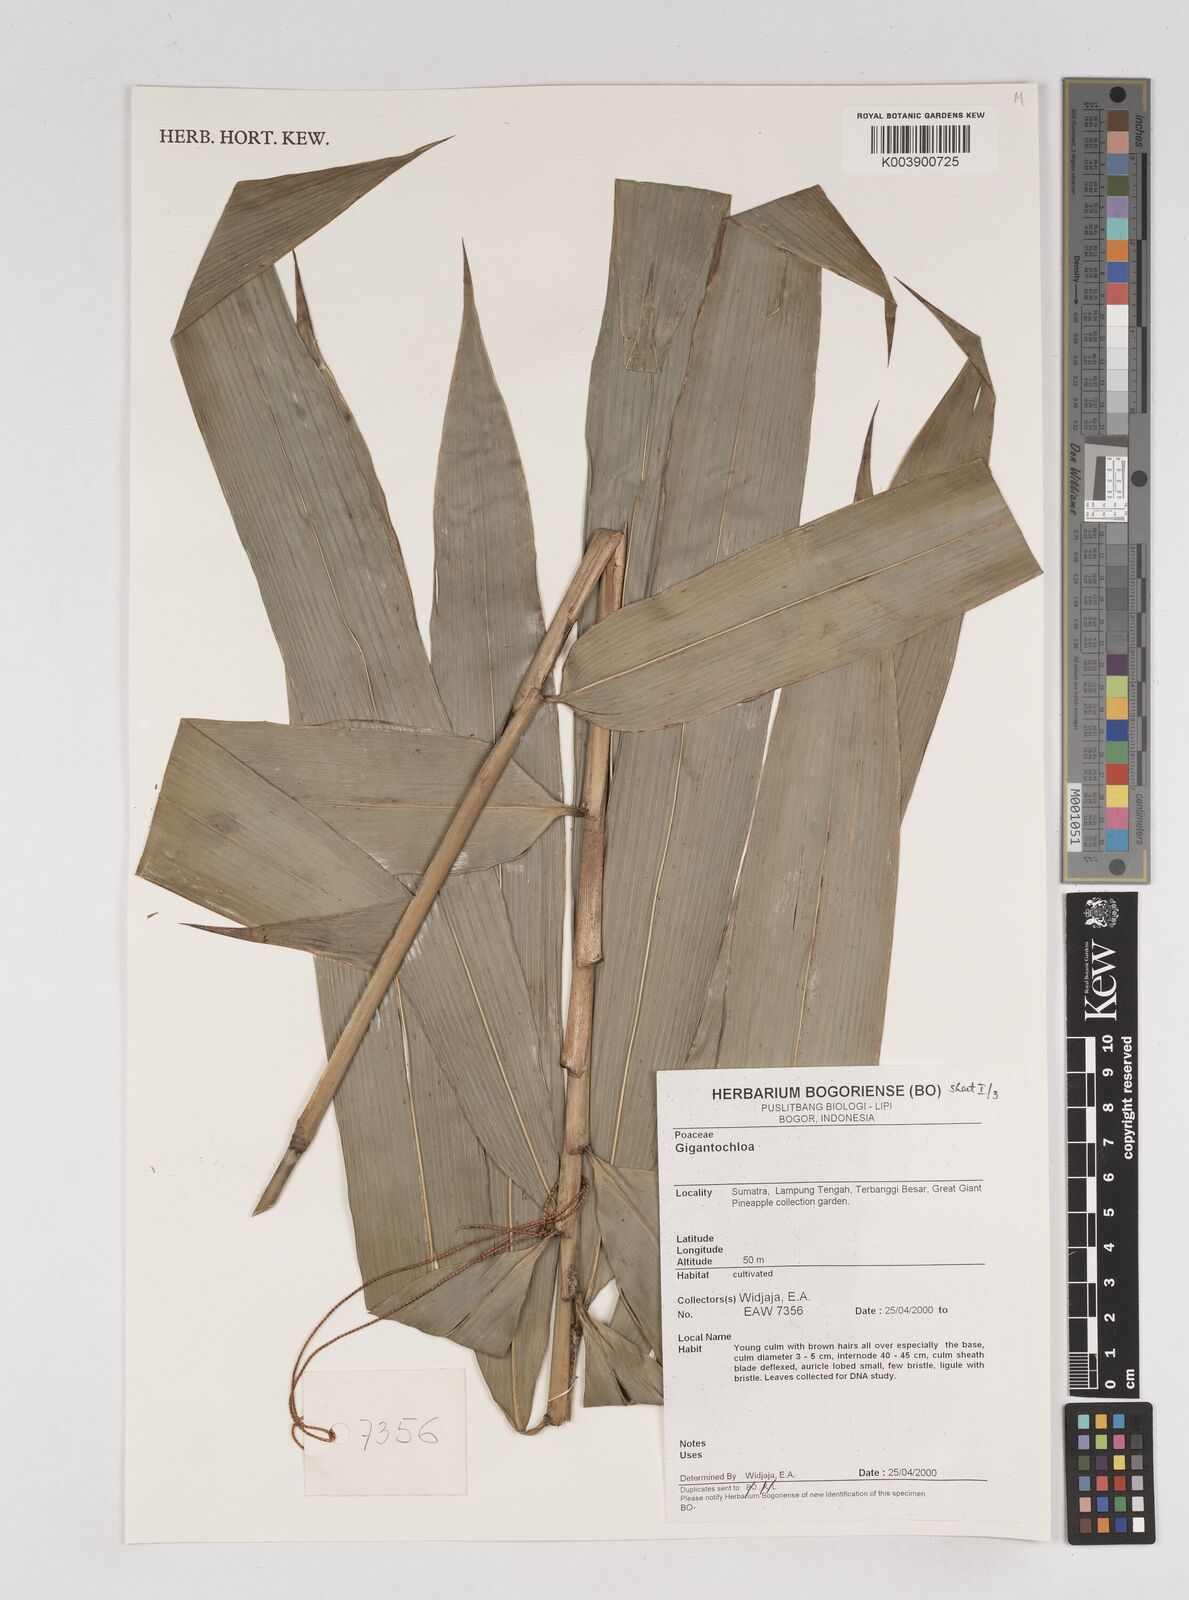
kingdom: Plantae
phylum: Tracheophyta
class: Liliopsida
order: Poales
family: Poaceae
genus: Gigantochloa
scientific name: Gigantochloa
